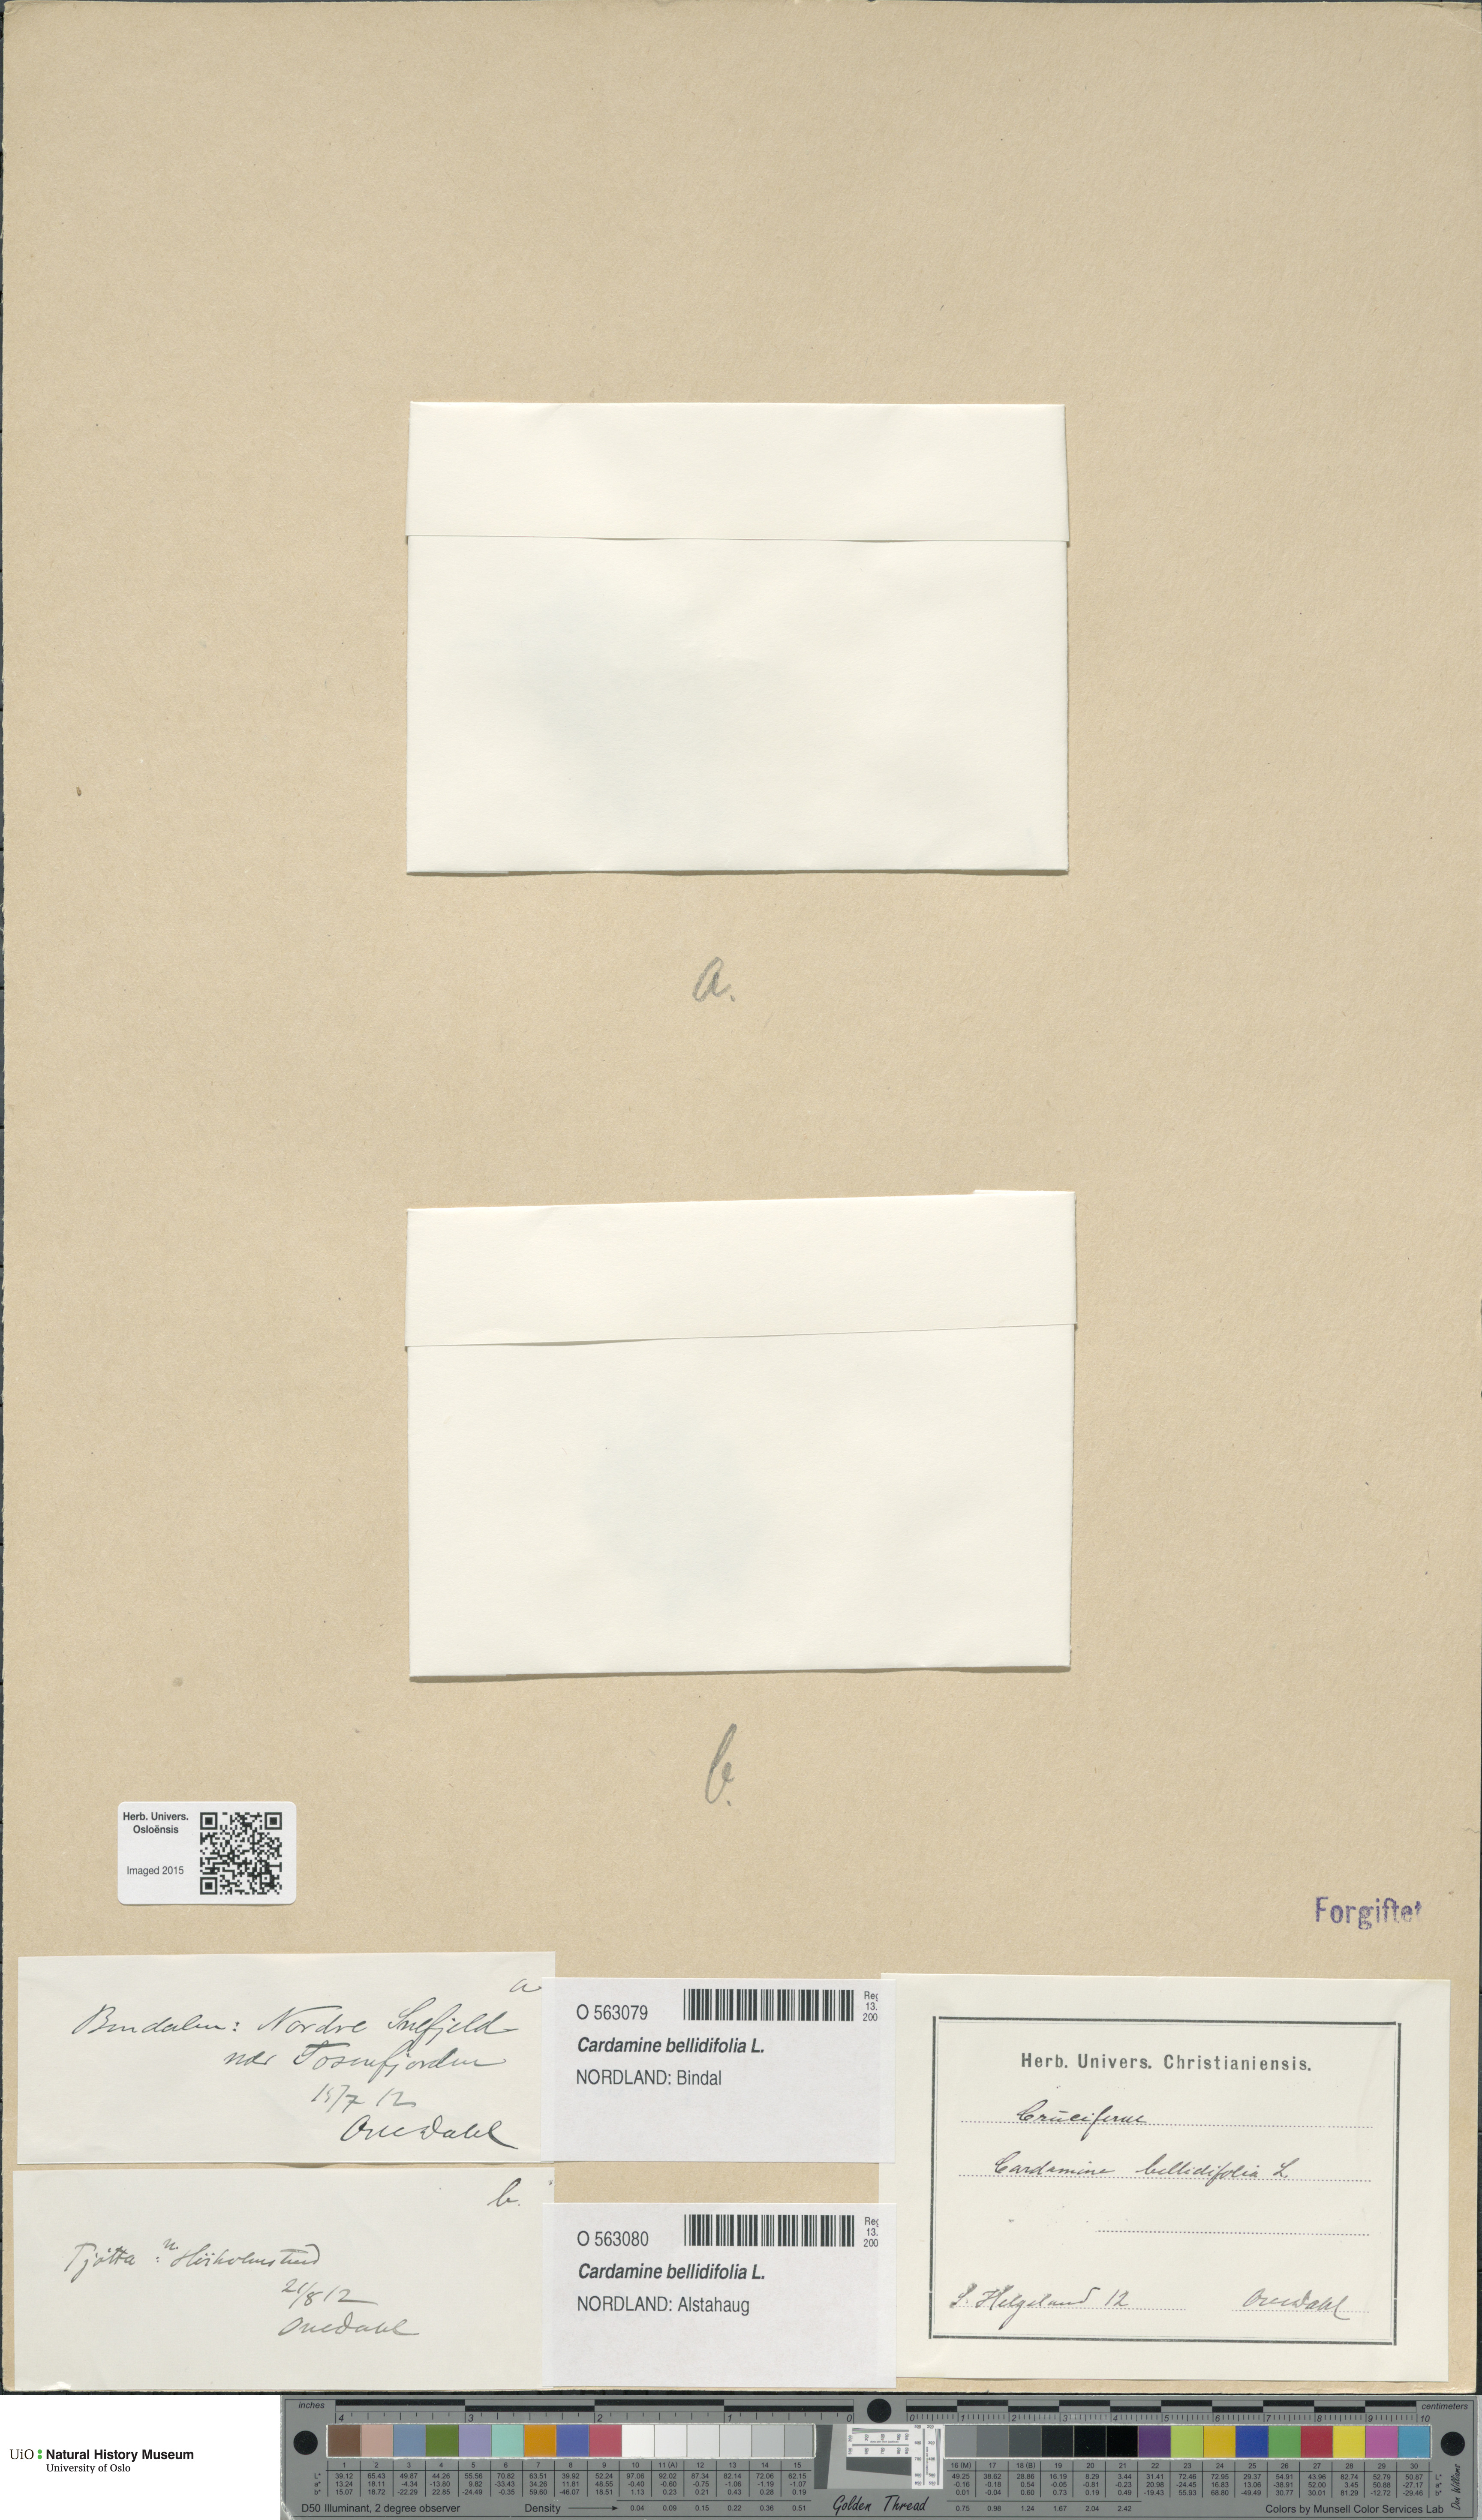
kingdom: Plantae
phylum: Tracheophyta
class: Magnoliopsida
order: Brassicales
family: Brassicaceae
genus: Cardamine
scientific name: Cardamine bellidifolia
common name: Alpine bittercress
